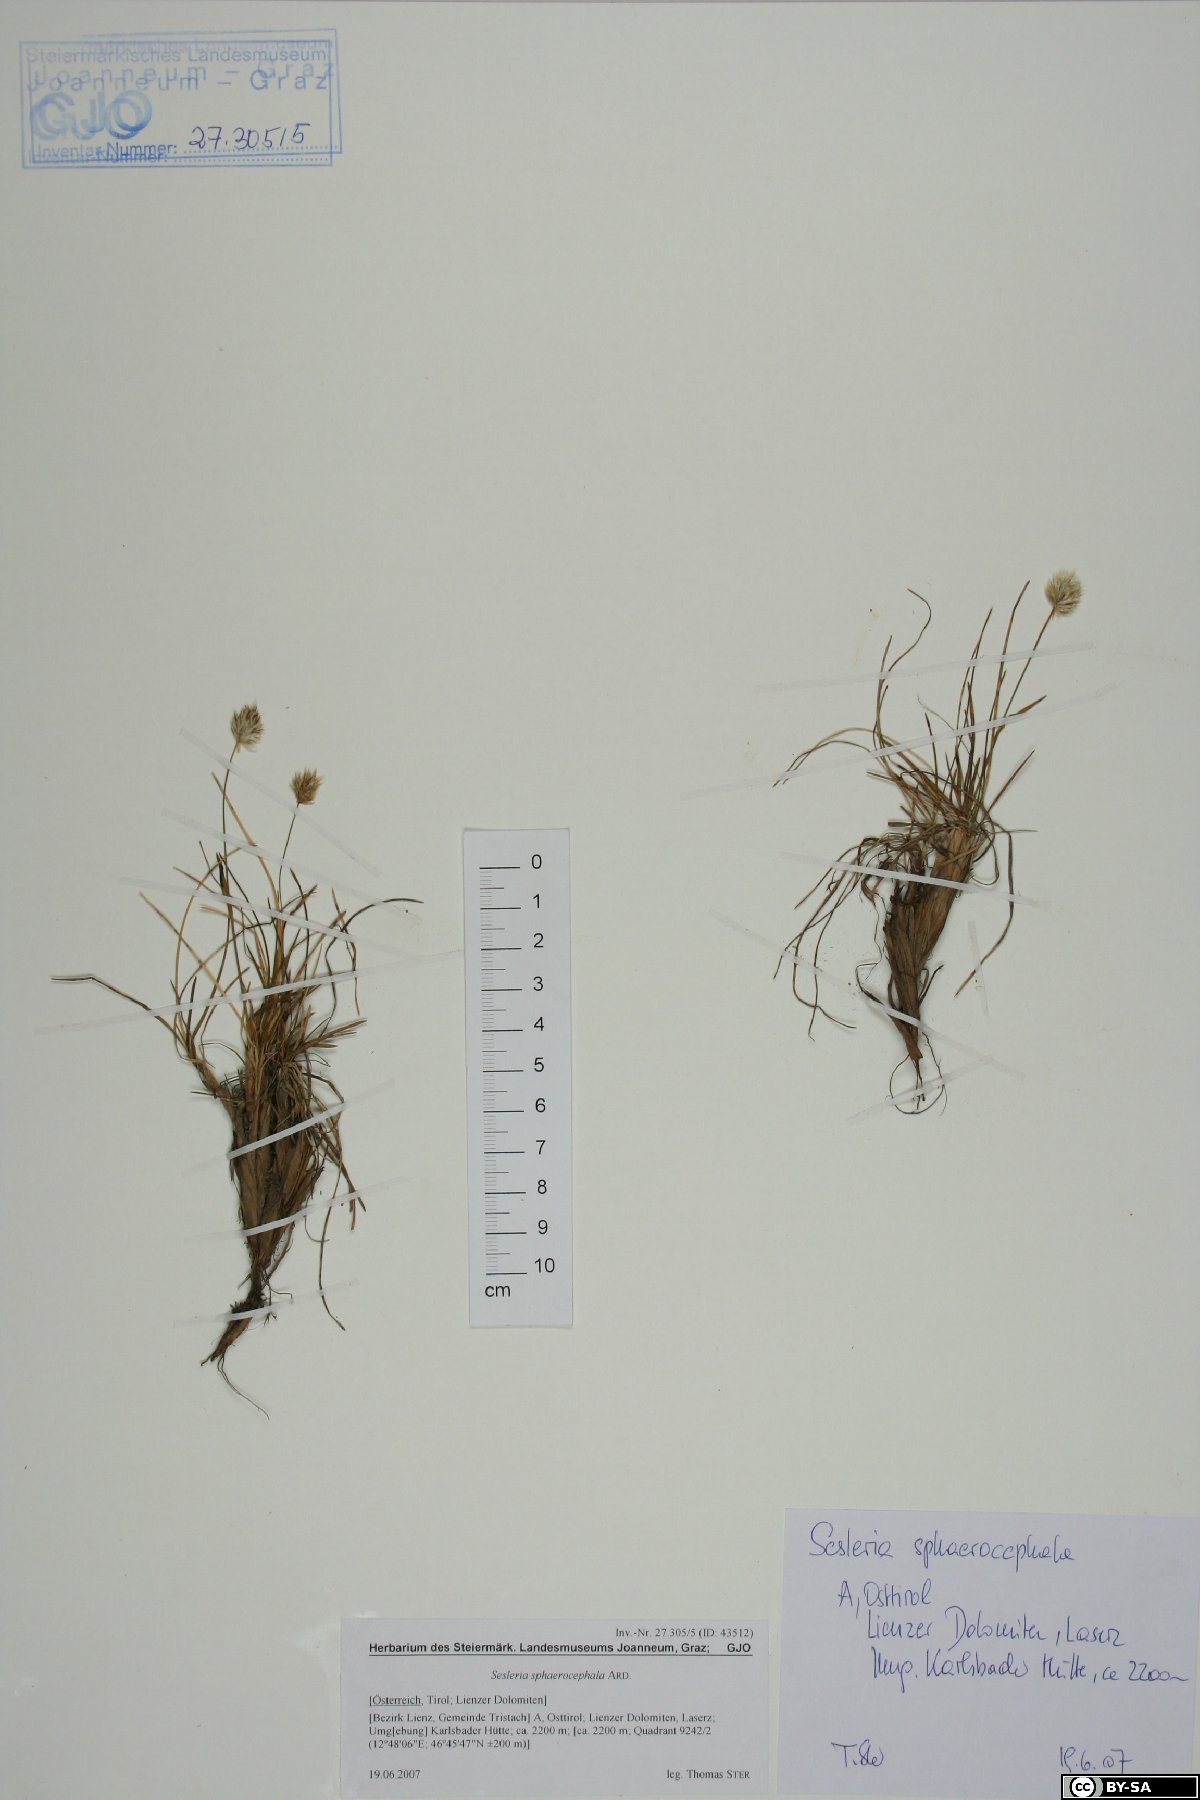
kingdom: Plantae
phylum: Tracheophyta
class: Liliopsida
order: Poales
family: Poaceae
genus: Sesleriella
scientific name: Sesleriella sphaerocephala
